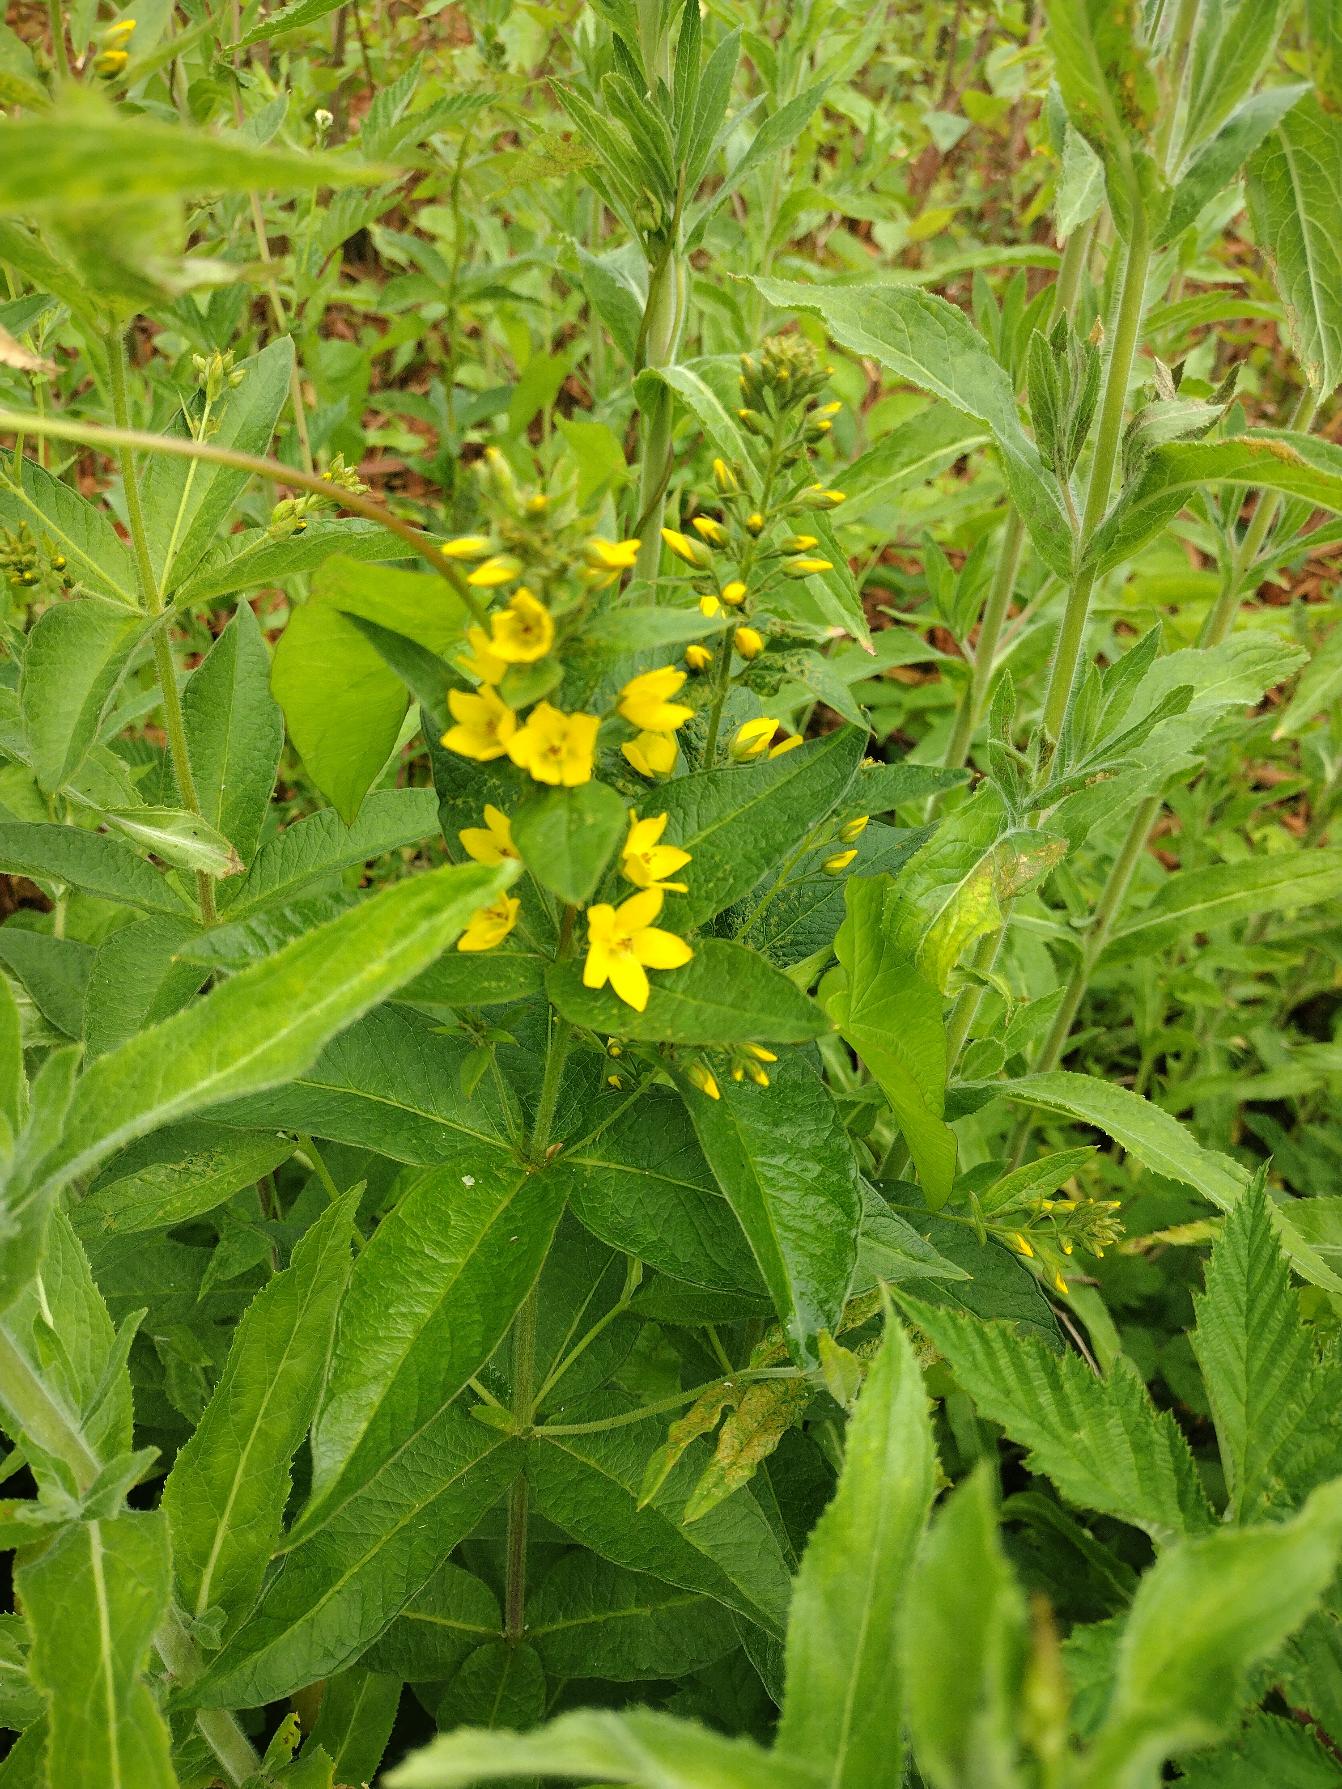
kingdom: Plantae
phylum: Tracheophyta
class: Magnoliopsida
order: Ericales
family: Primulaceae
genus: Lysimachia
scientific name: Lysimachia vulgaris
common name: Almindelig fredløs
